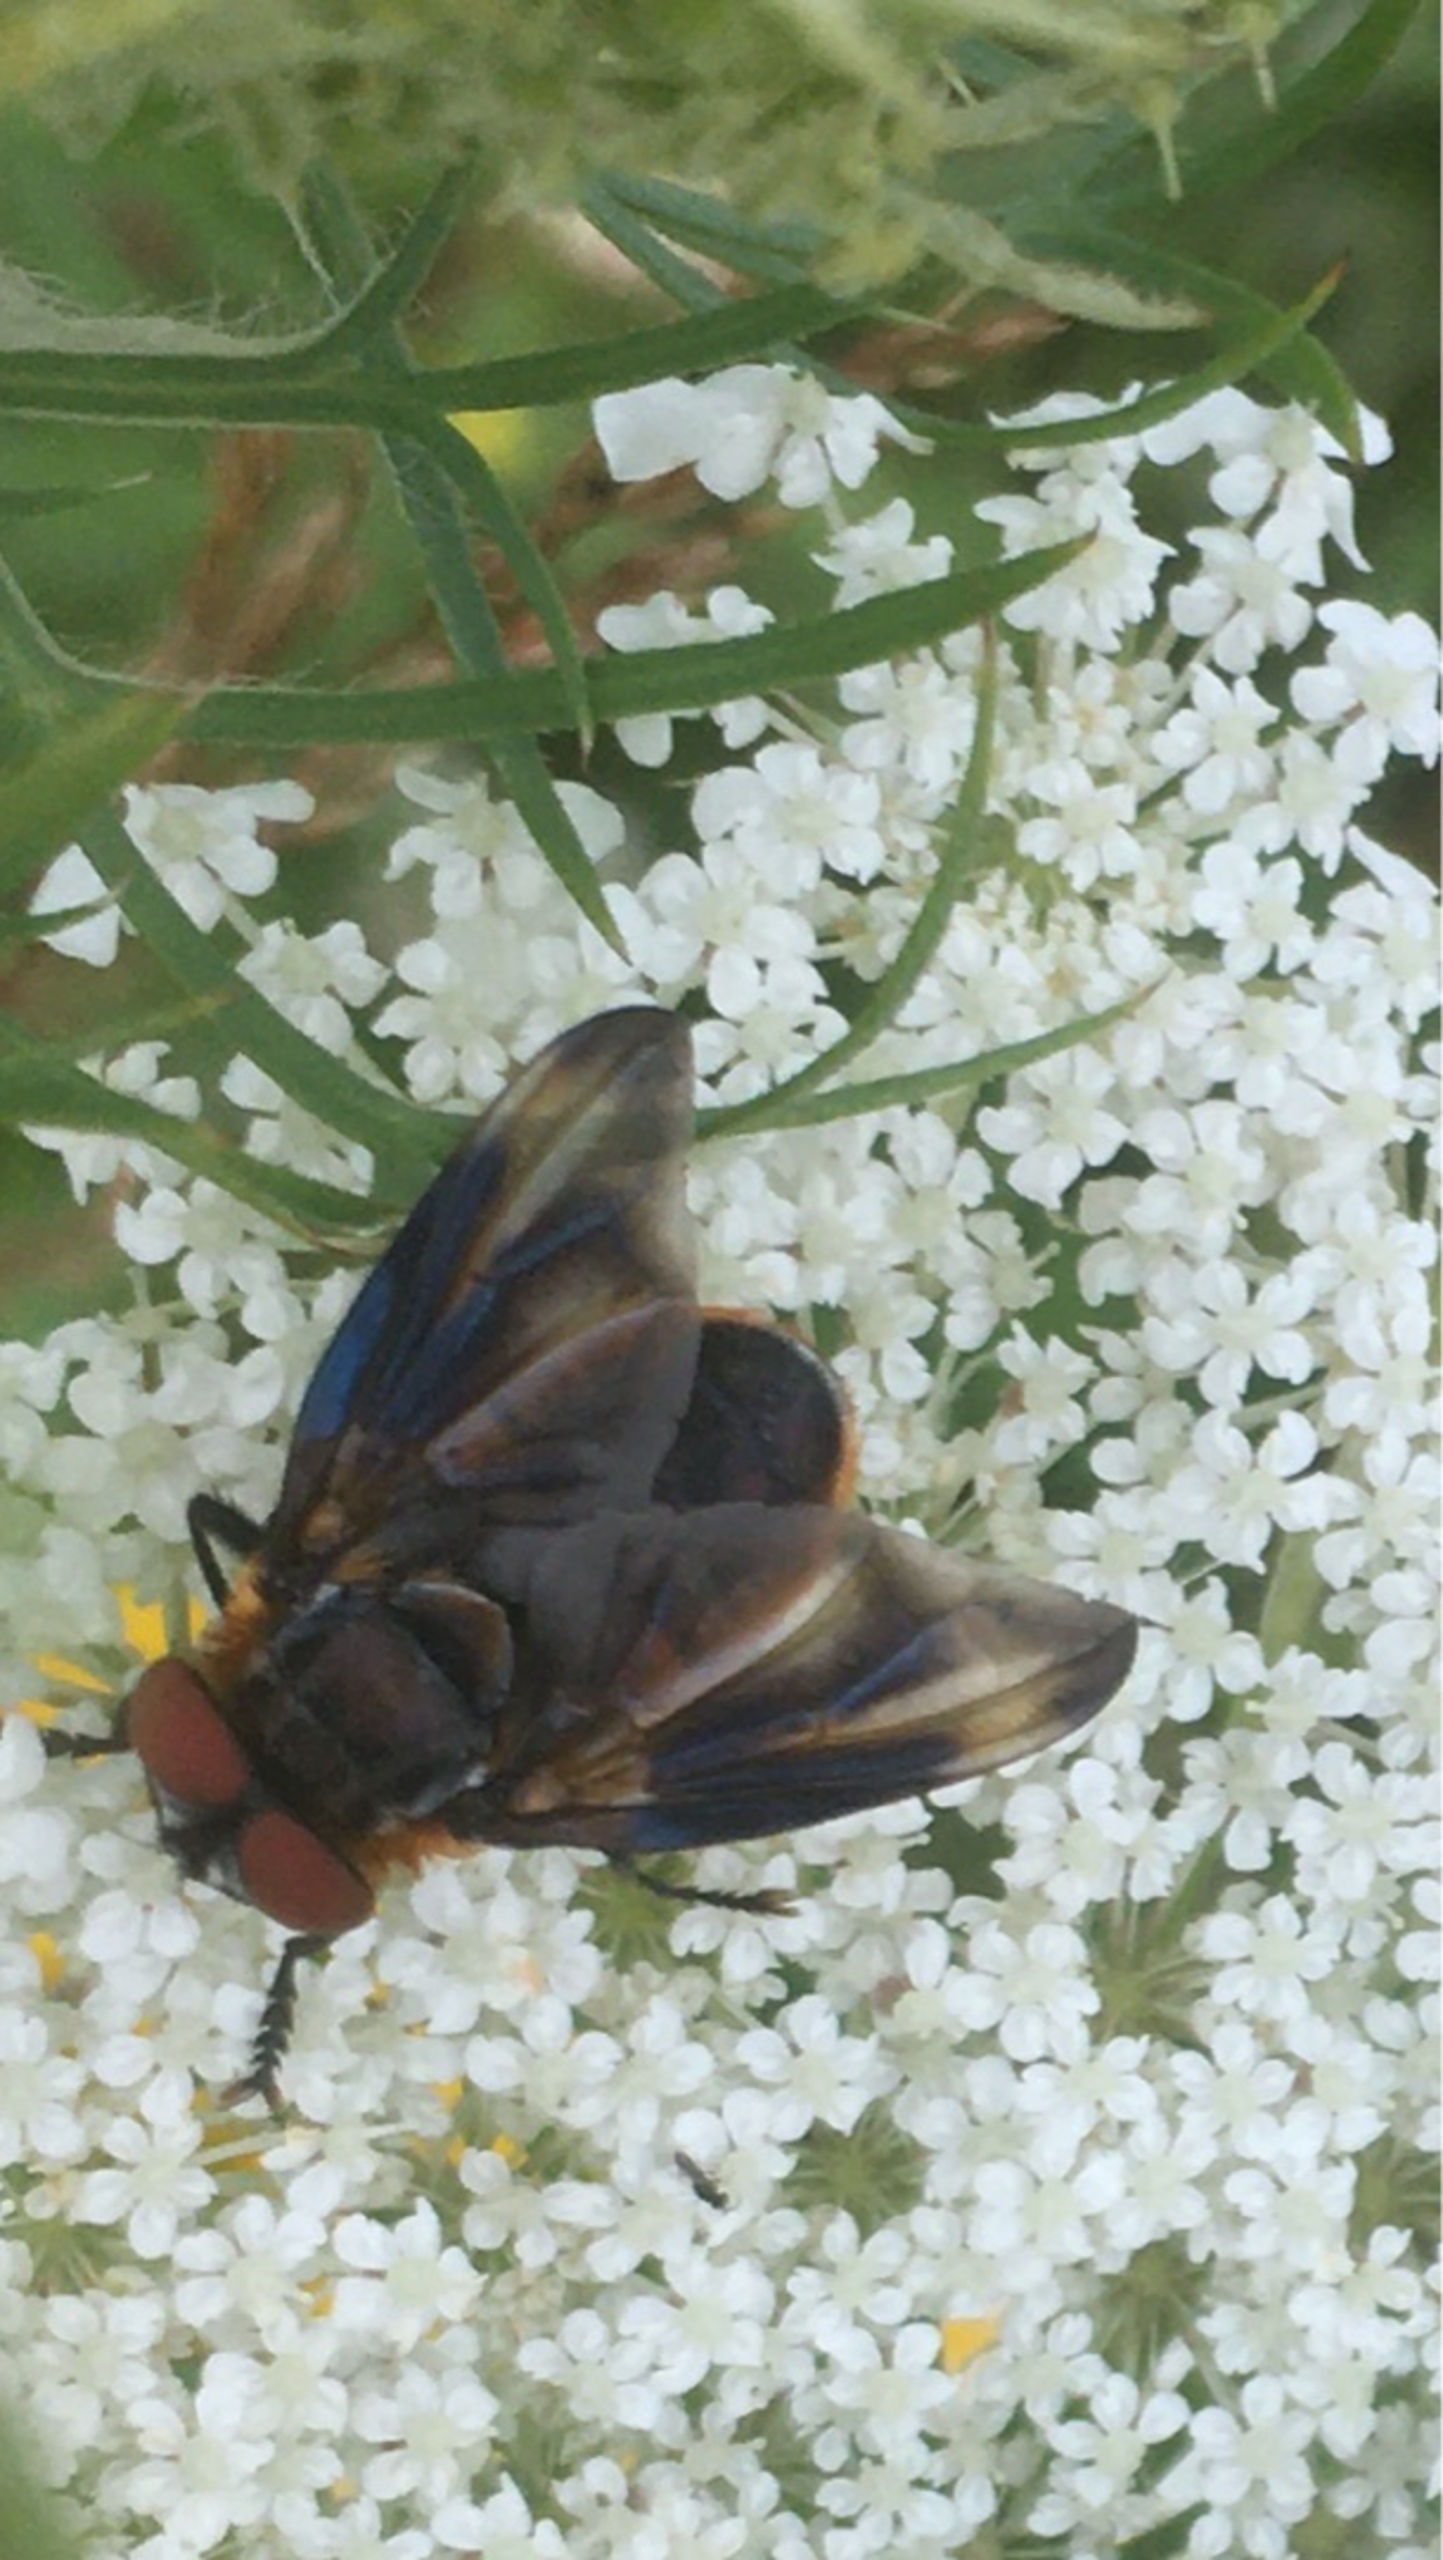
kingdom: Animalia
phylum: Arthropoda
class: Insecta
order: Diptera
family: Tachinidae
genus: Phasia
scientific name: Phasia hemiptera
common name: Blåvinget pragtsnylteflue
